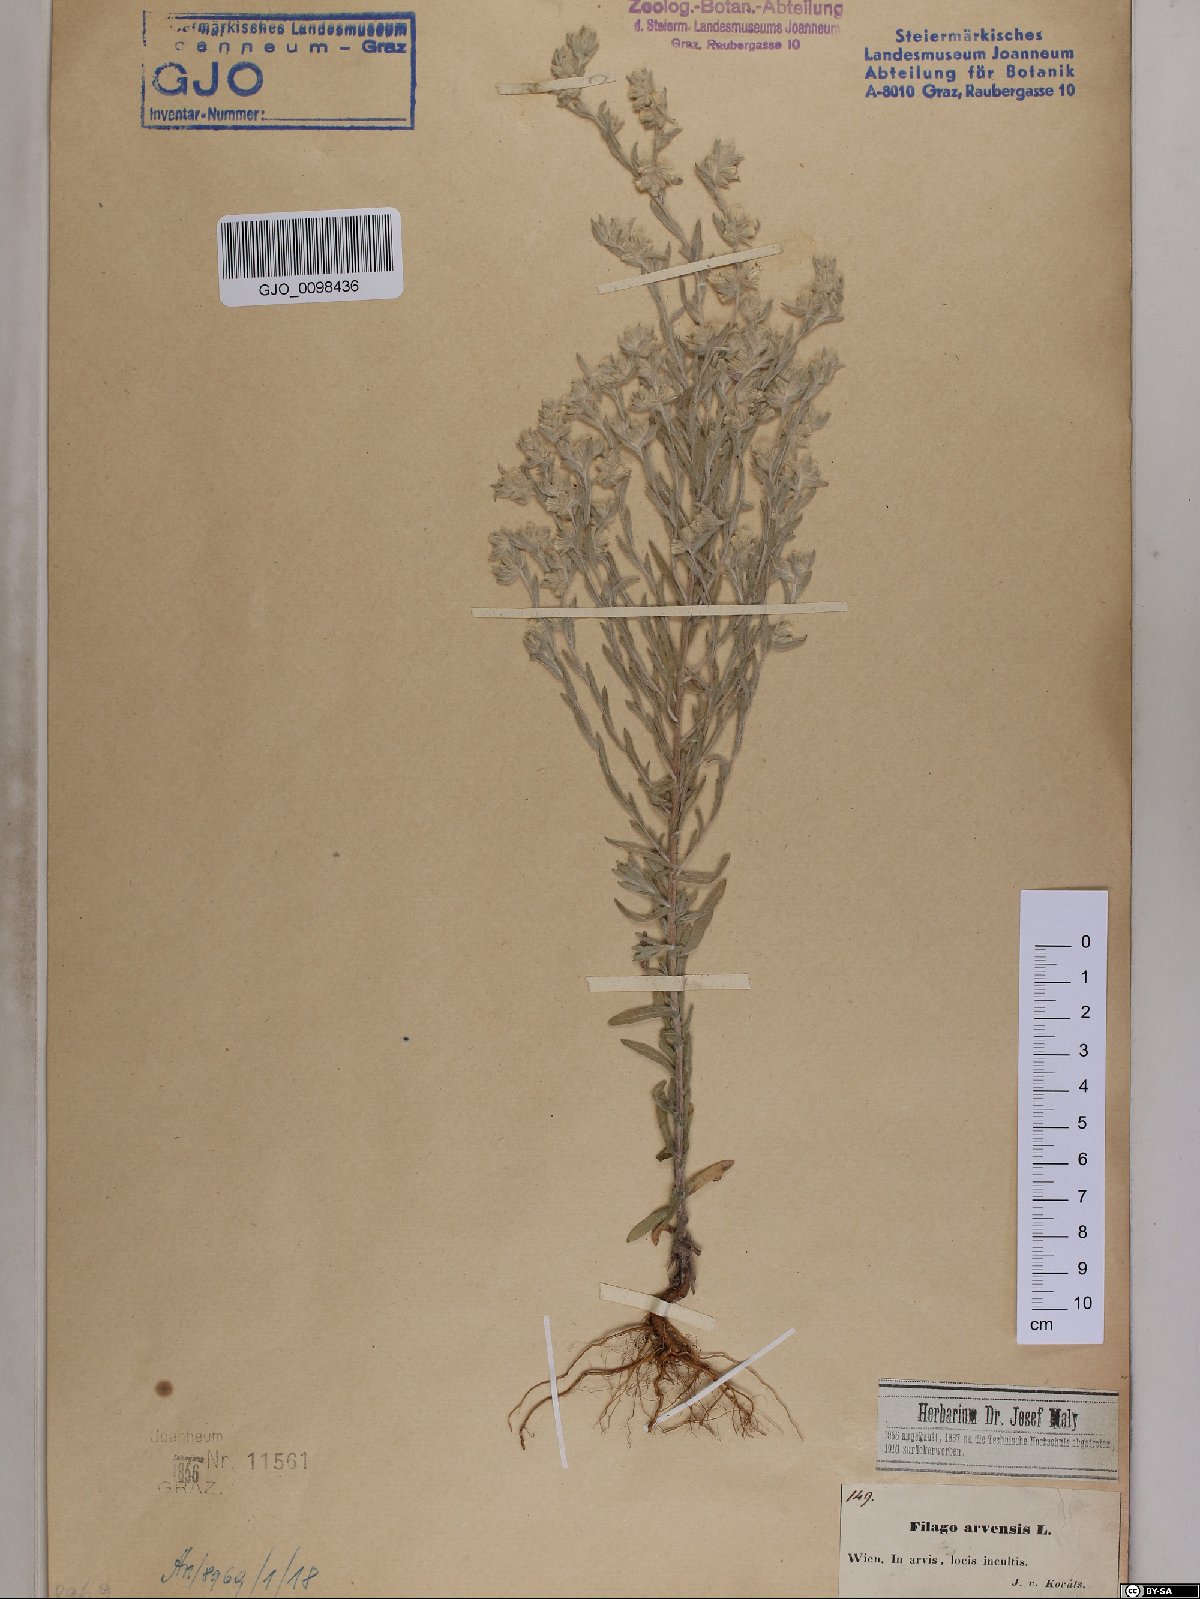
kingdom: Plantae
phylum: Tracheophyta
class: Magnoliopsida
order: Asterales
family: Asteraceae
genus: Filago
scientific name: Filago arvensis
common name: Field cudweed
